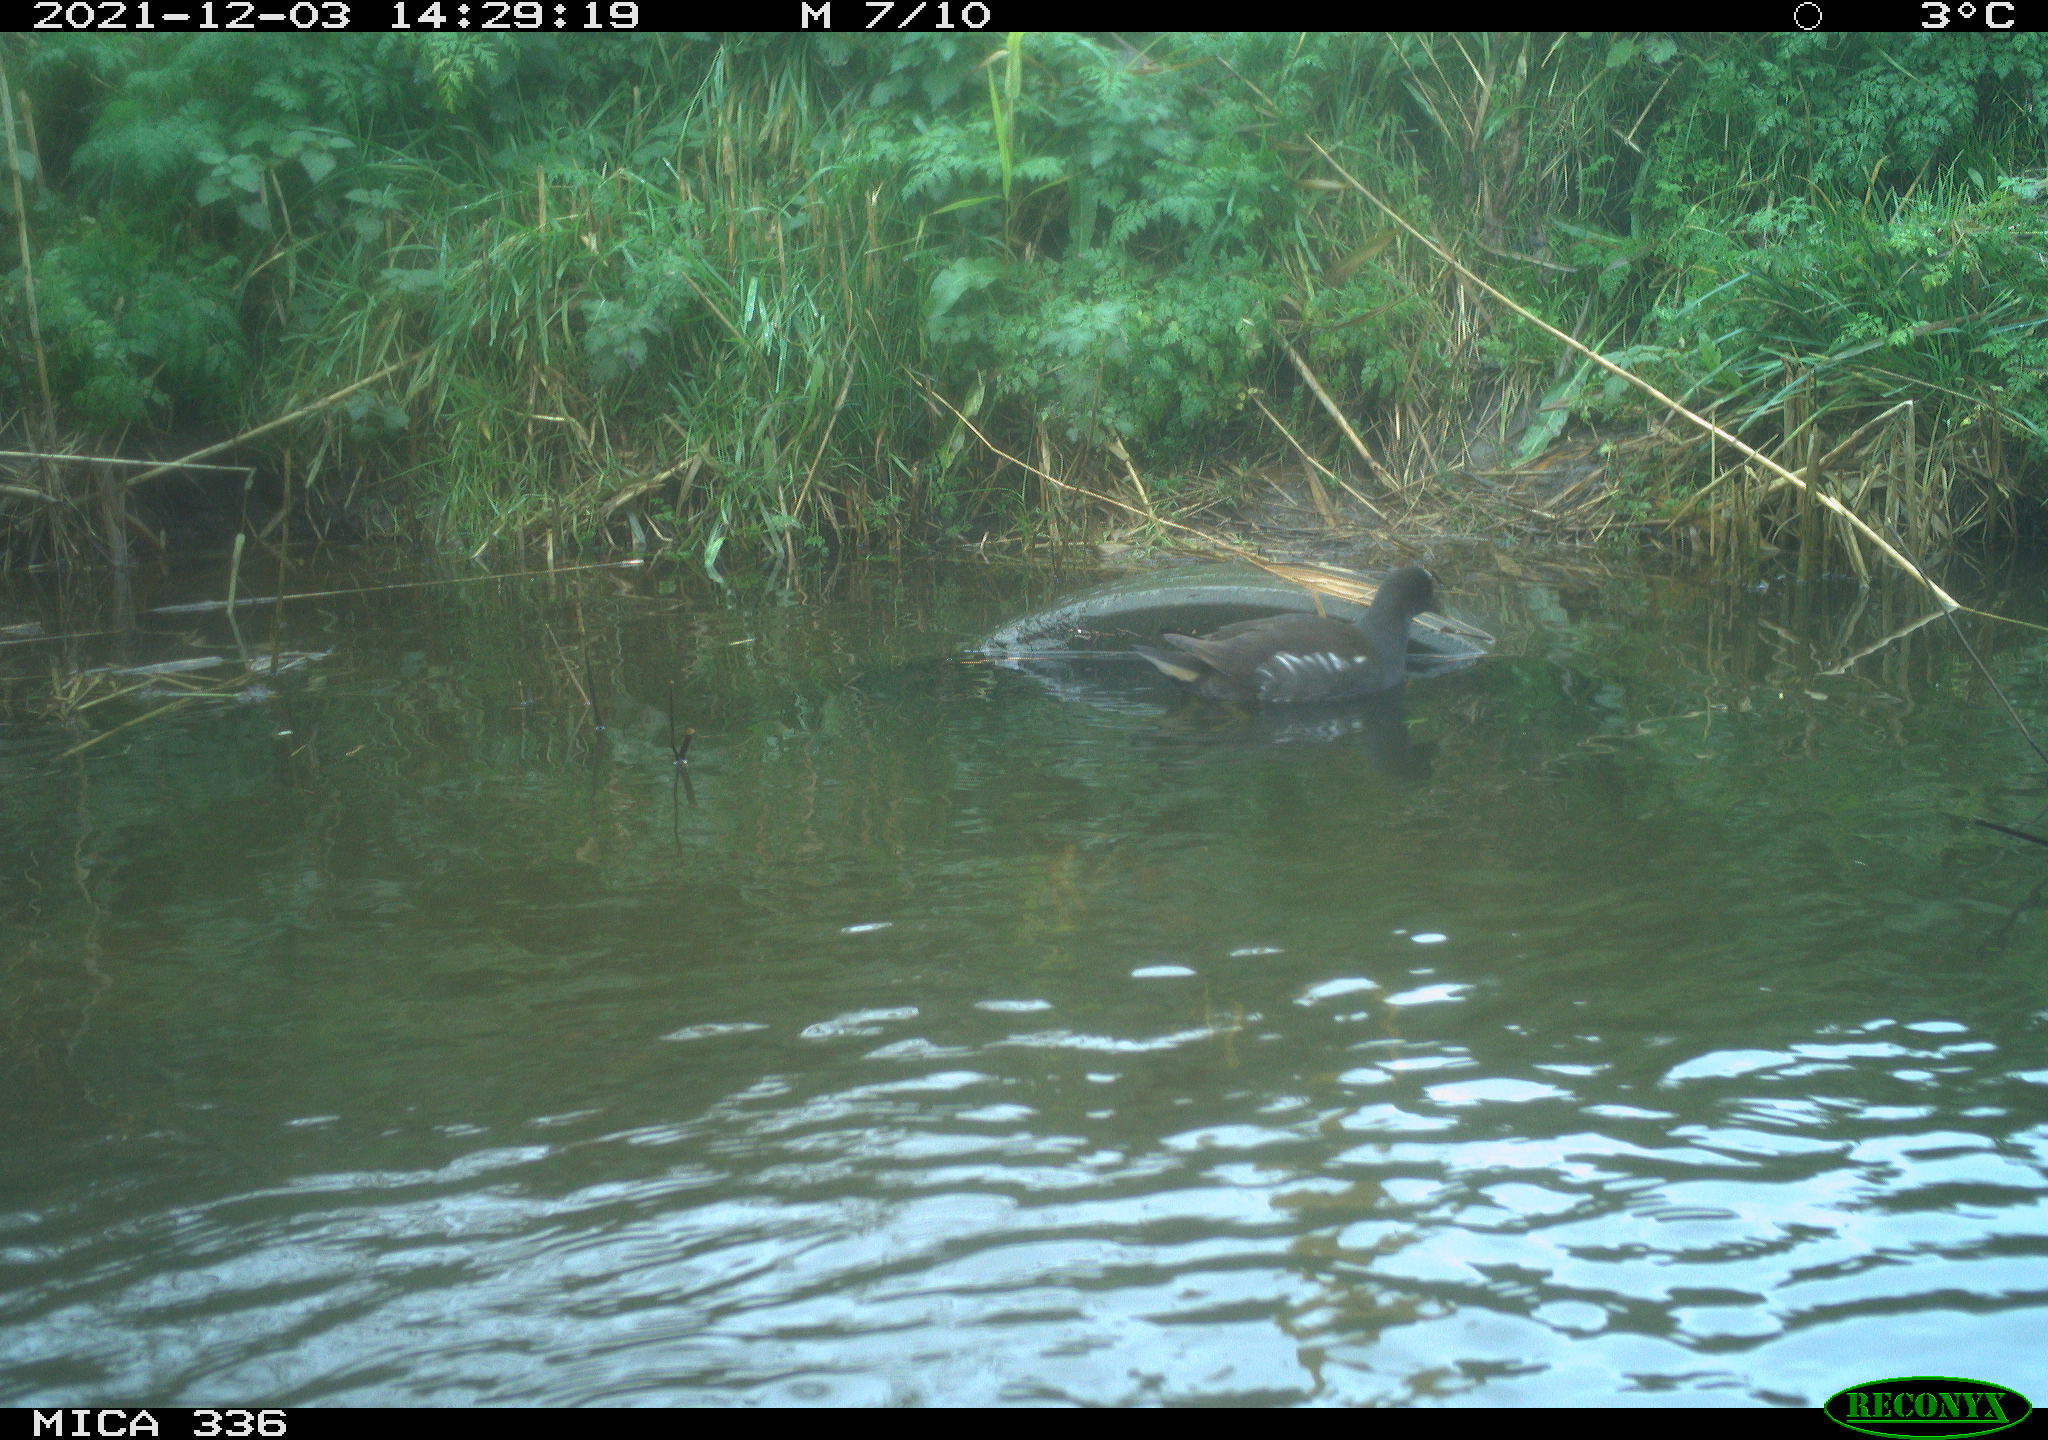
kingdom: Animalia
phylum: Chordata
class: Aves
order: Gruiformes
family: Rallidae
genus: Gallinula
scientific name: Gallinula chloropus
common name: Common moorhen
